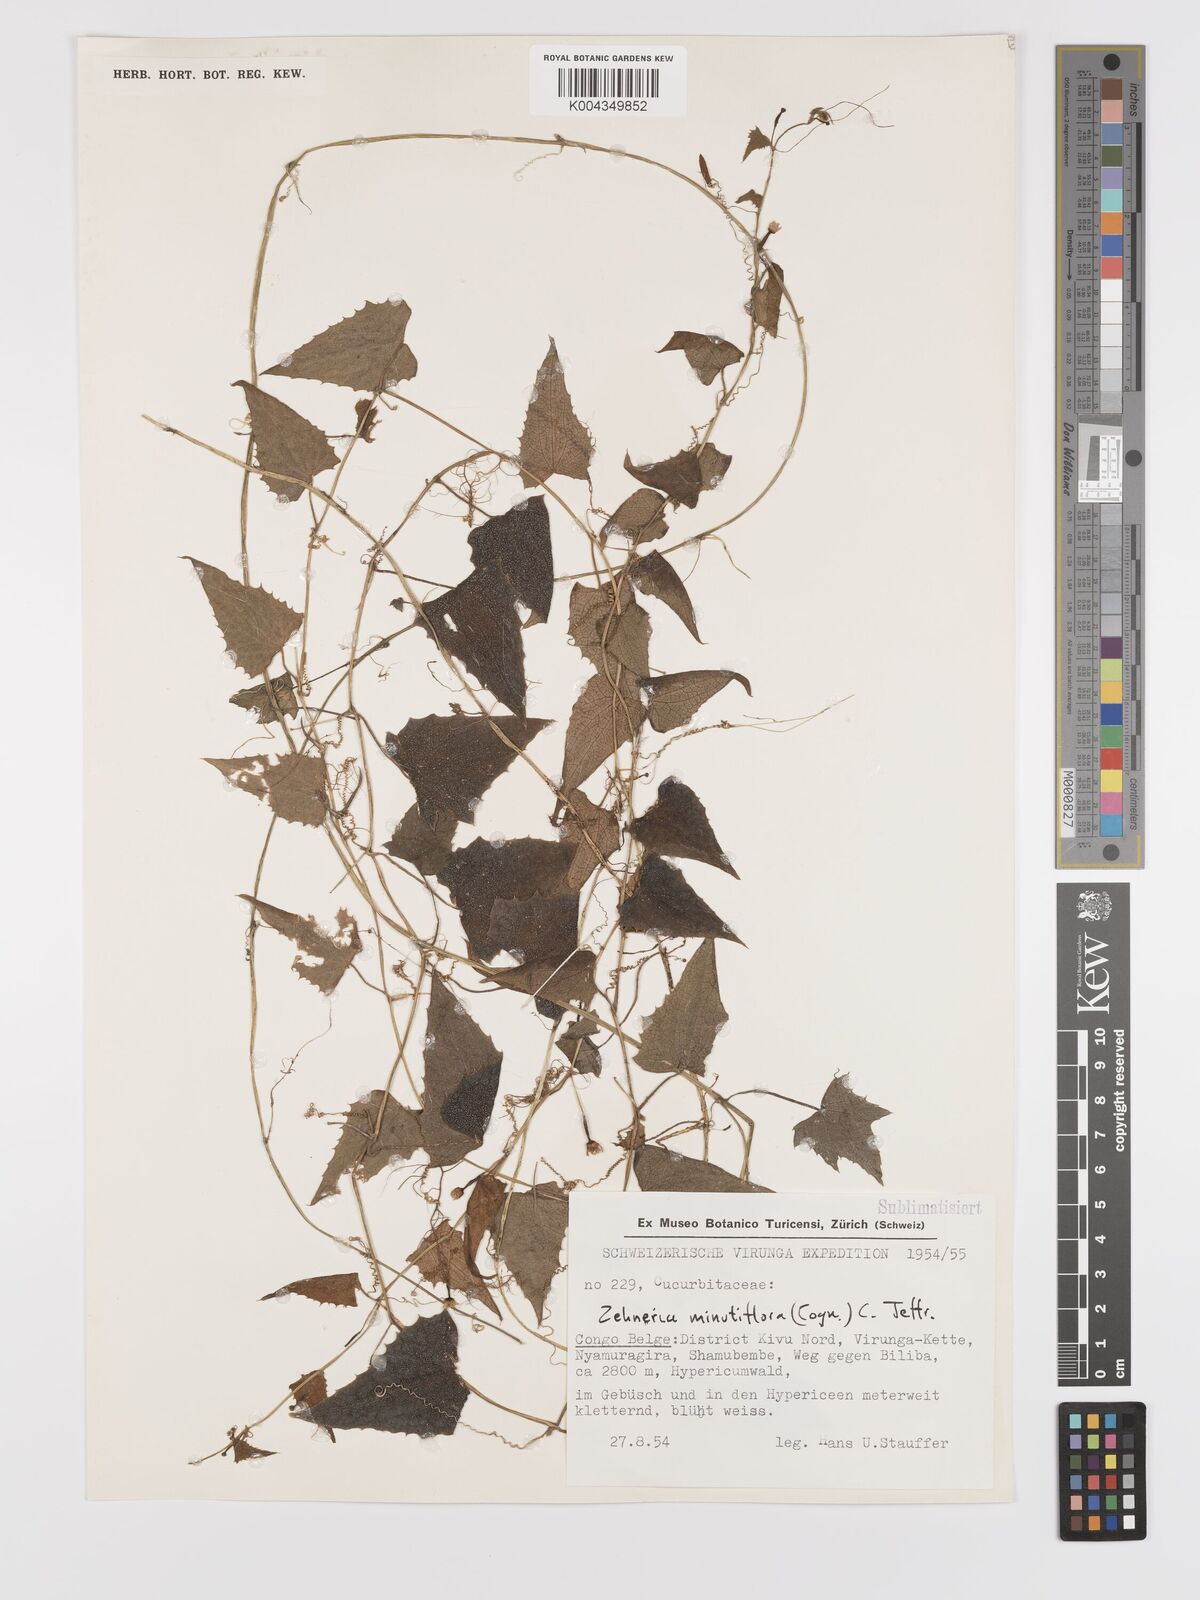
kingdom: Plantae
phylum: Tracheophyta
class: Magnoliopsida
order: Cucurbitales
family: Cucurbitaceae
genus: Zehneria
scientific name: Zehneria minutiflora
